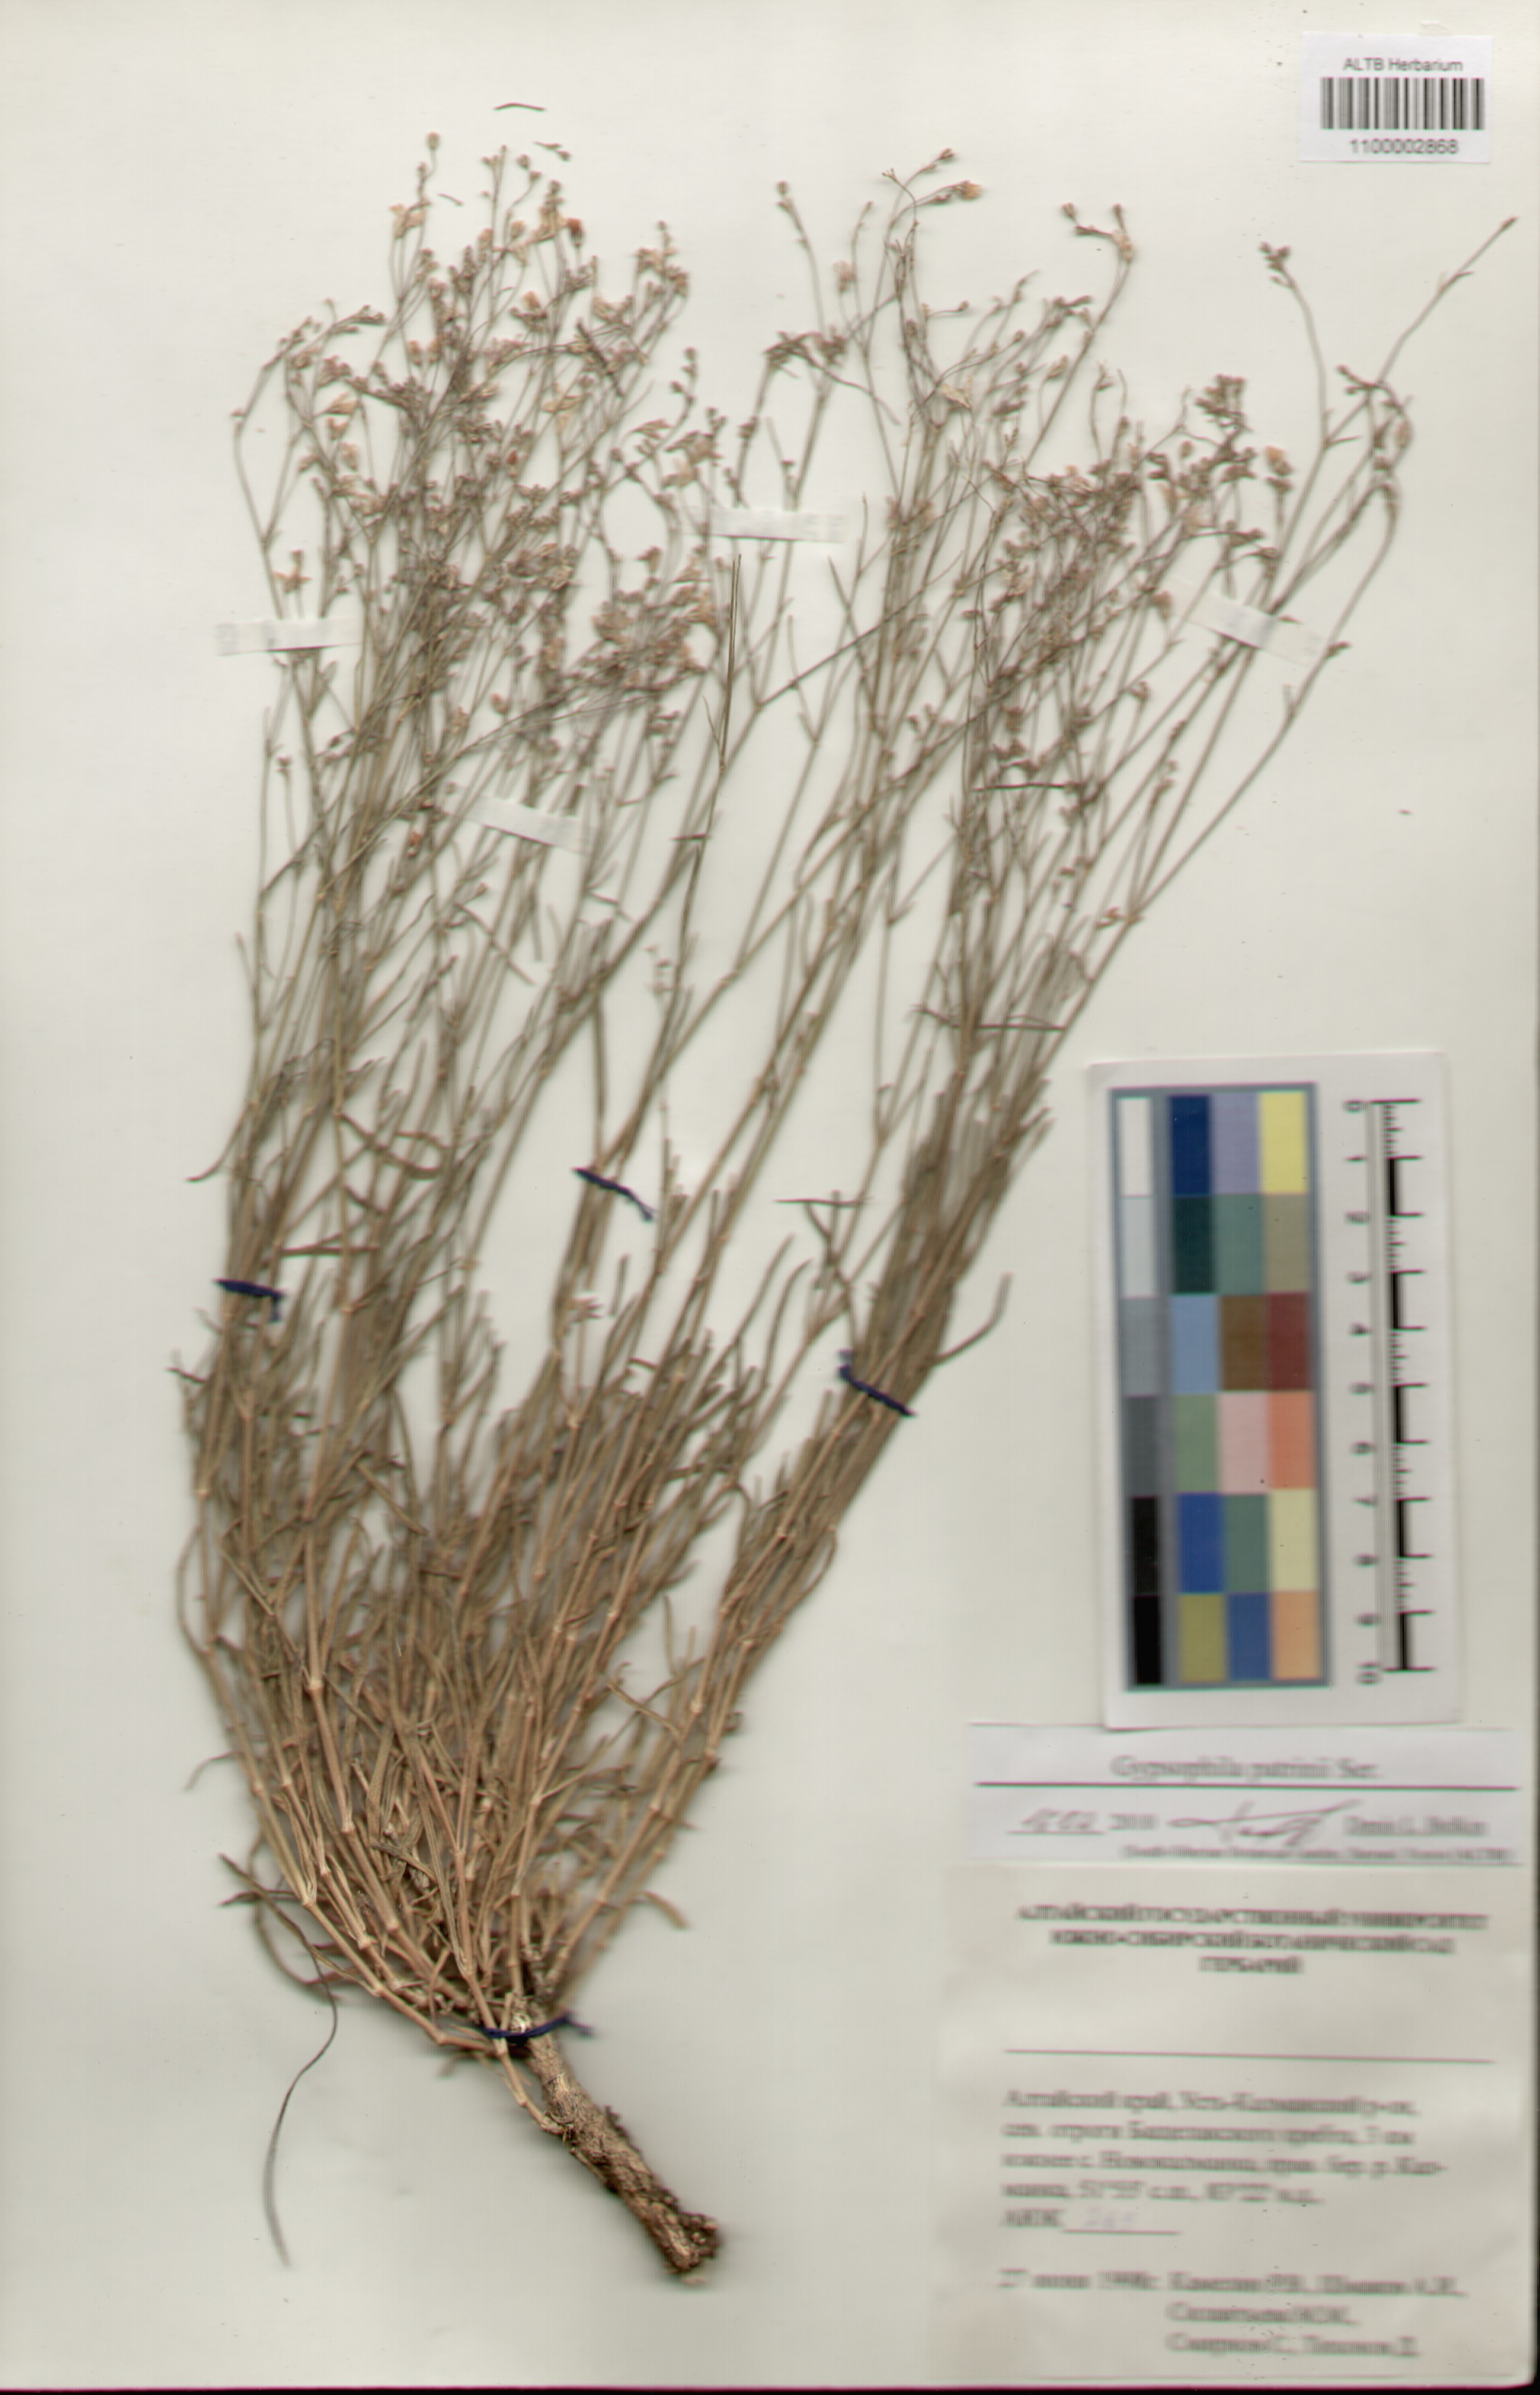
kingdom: Plantae
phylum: Tracheophyta
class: Magnoliopsida
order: Caryophyllales
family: Caryophyllaceae
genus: Gypsophila
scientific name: Gypsophila patrinii
